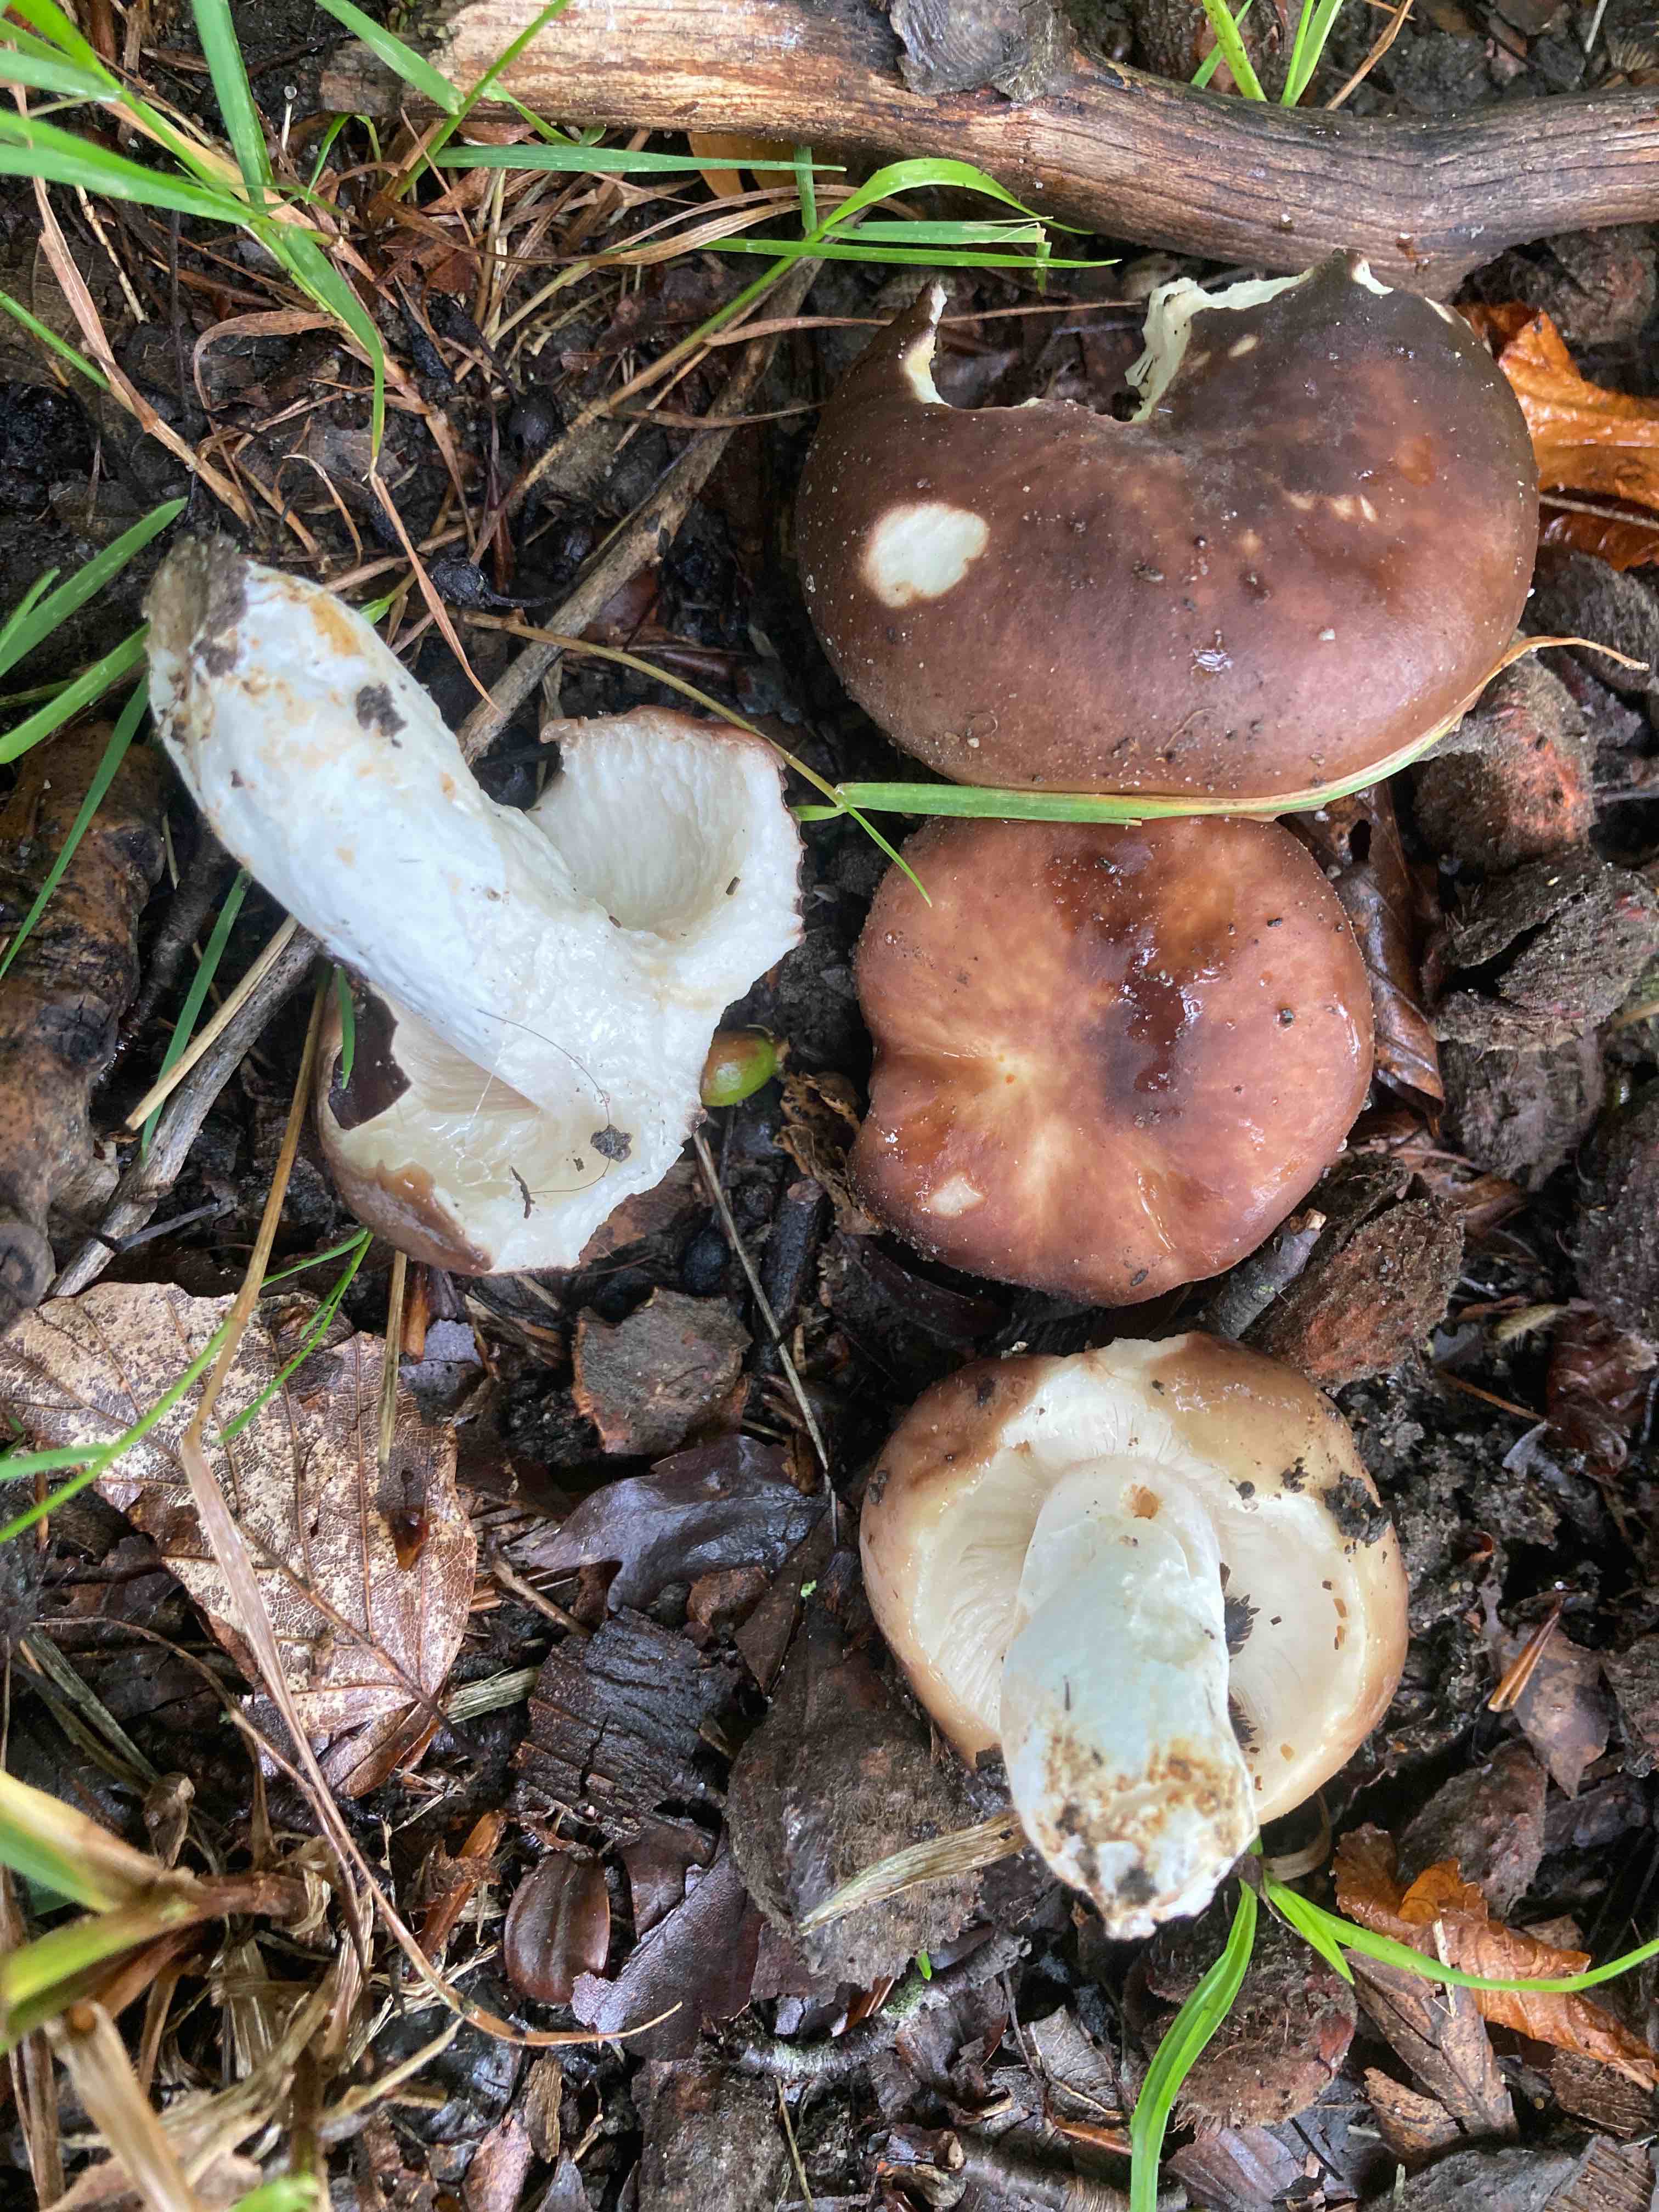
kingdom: Fungi
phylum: Basidiomycota
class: Agaricomycetes
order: Russulales
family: Russulaceae
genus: Russula
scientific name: Russula vesca
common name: spiselig skørhat
